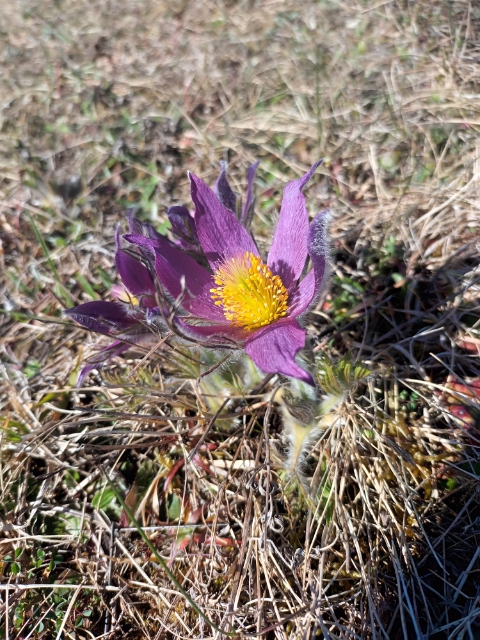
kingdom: Plantae
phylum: Tracheophyta
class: Magnoliopsida
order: Ranunculales
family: Ranunculaceae
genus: Pulsatilla
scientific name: Pulsatilla vulgaris
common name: Opret kobjælde
